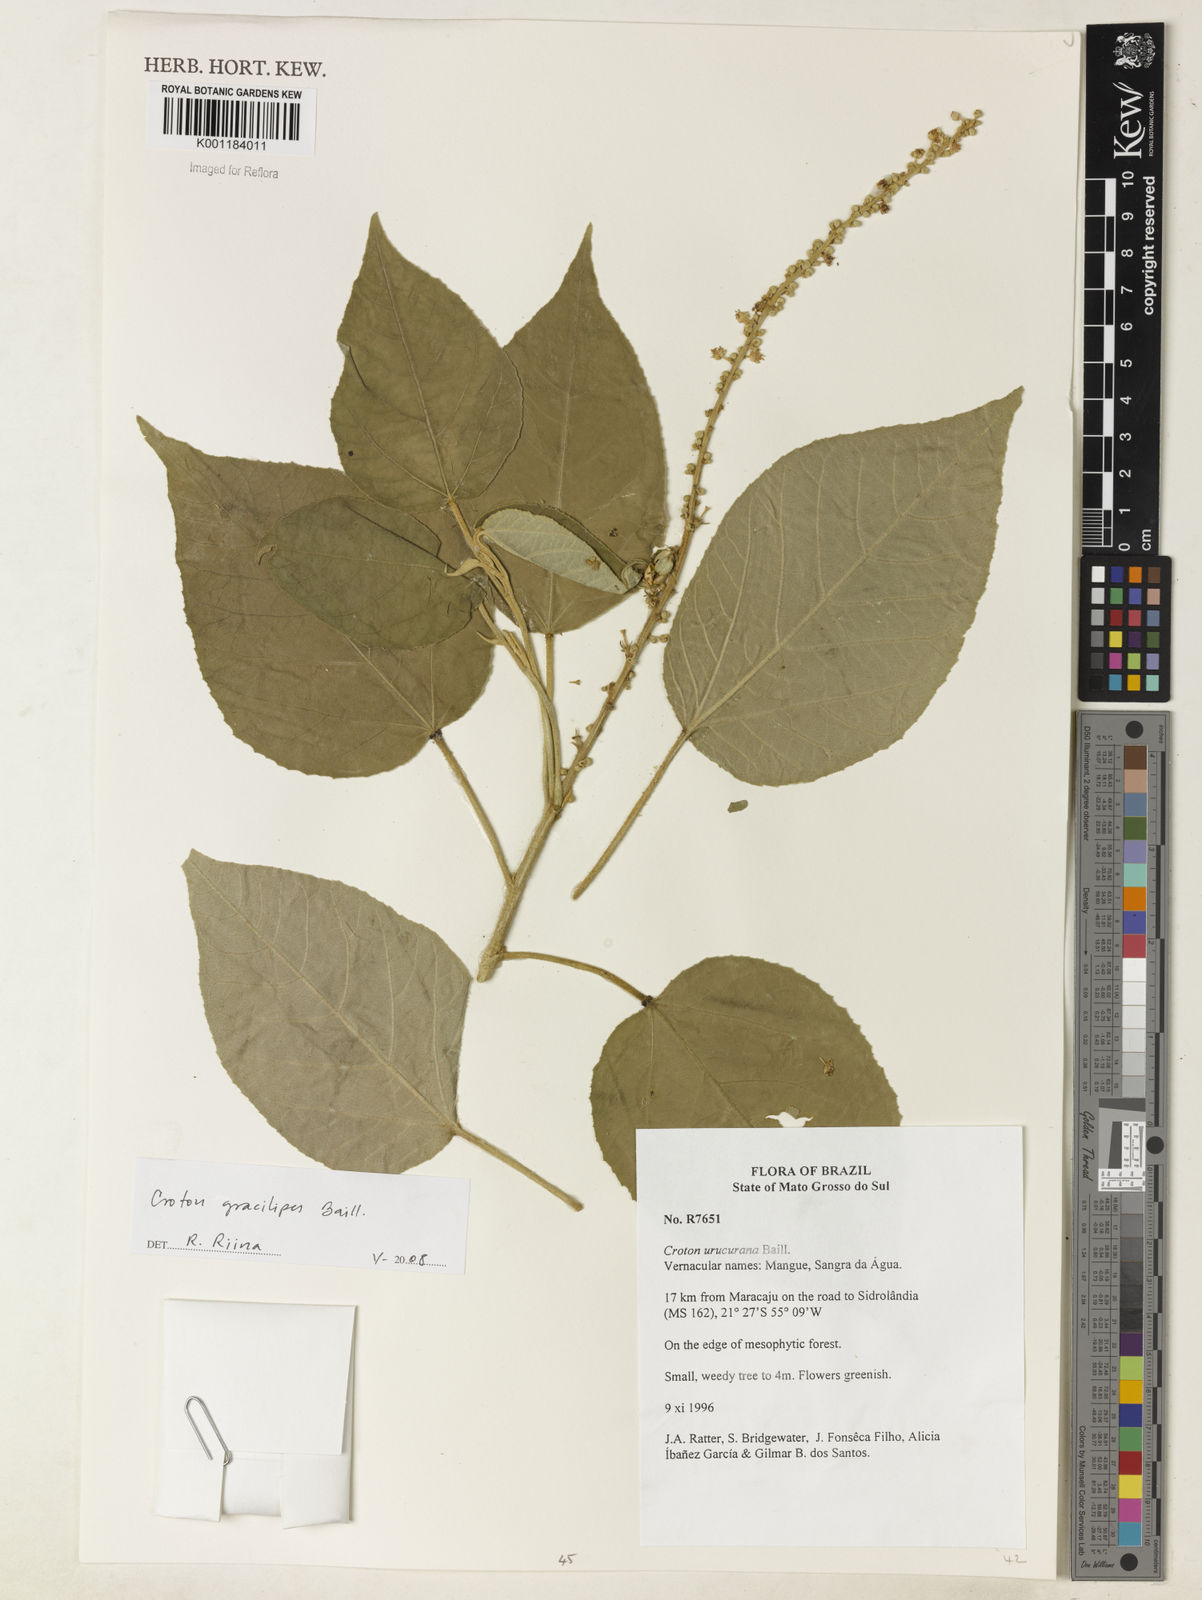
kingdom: Plantae
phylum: Tracheophyta
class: Magnoliopsida
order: Malpighiales
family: Euphorbiaceae
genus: Croton
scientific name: Croton gracilipes
